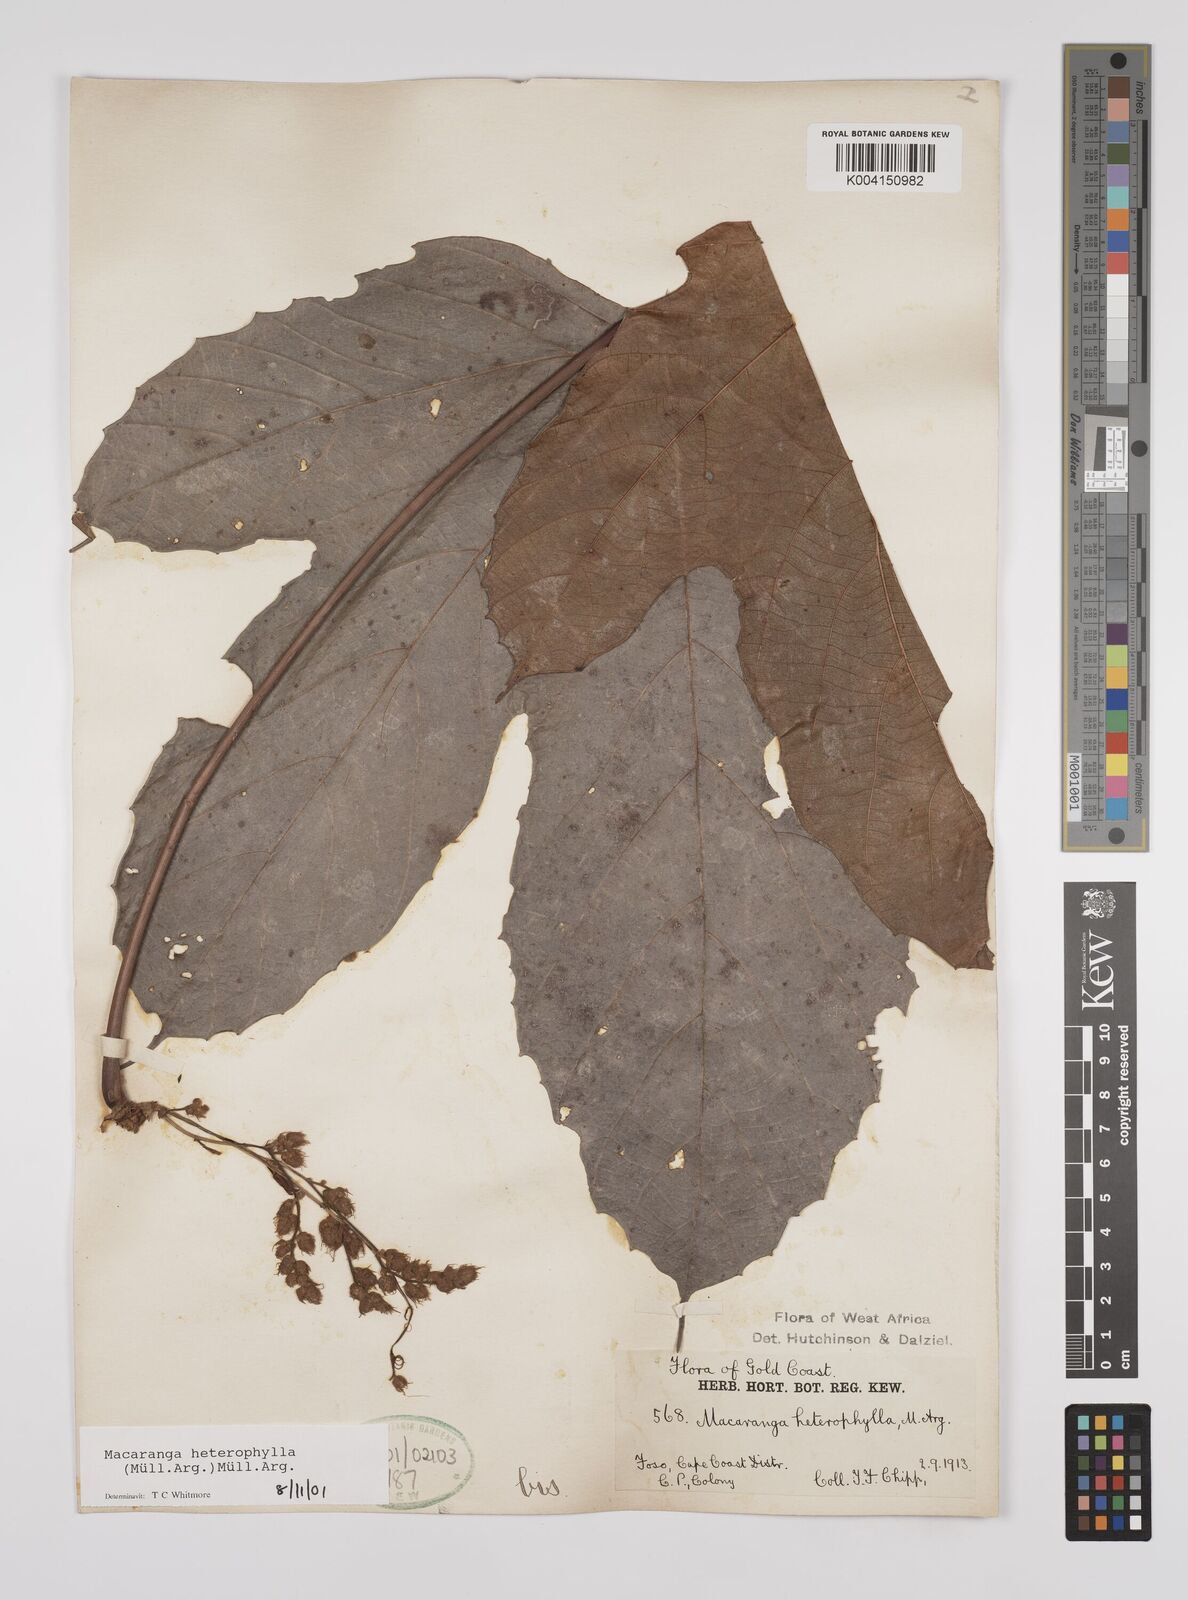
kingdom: Plantae
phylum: Tracheophyta
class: Magnoliopsida
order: Malpighiales
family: Euphorbiaceae
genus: Macaranga
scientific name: Macaranga heterophylla
